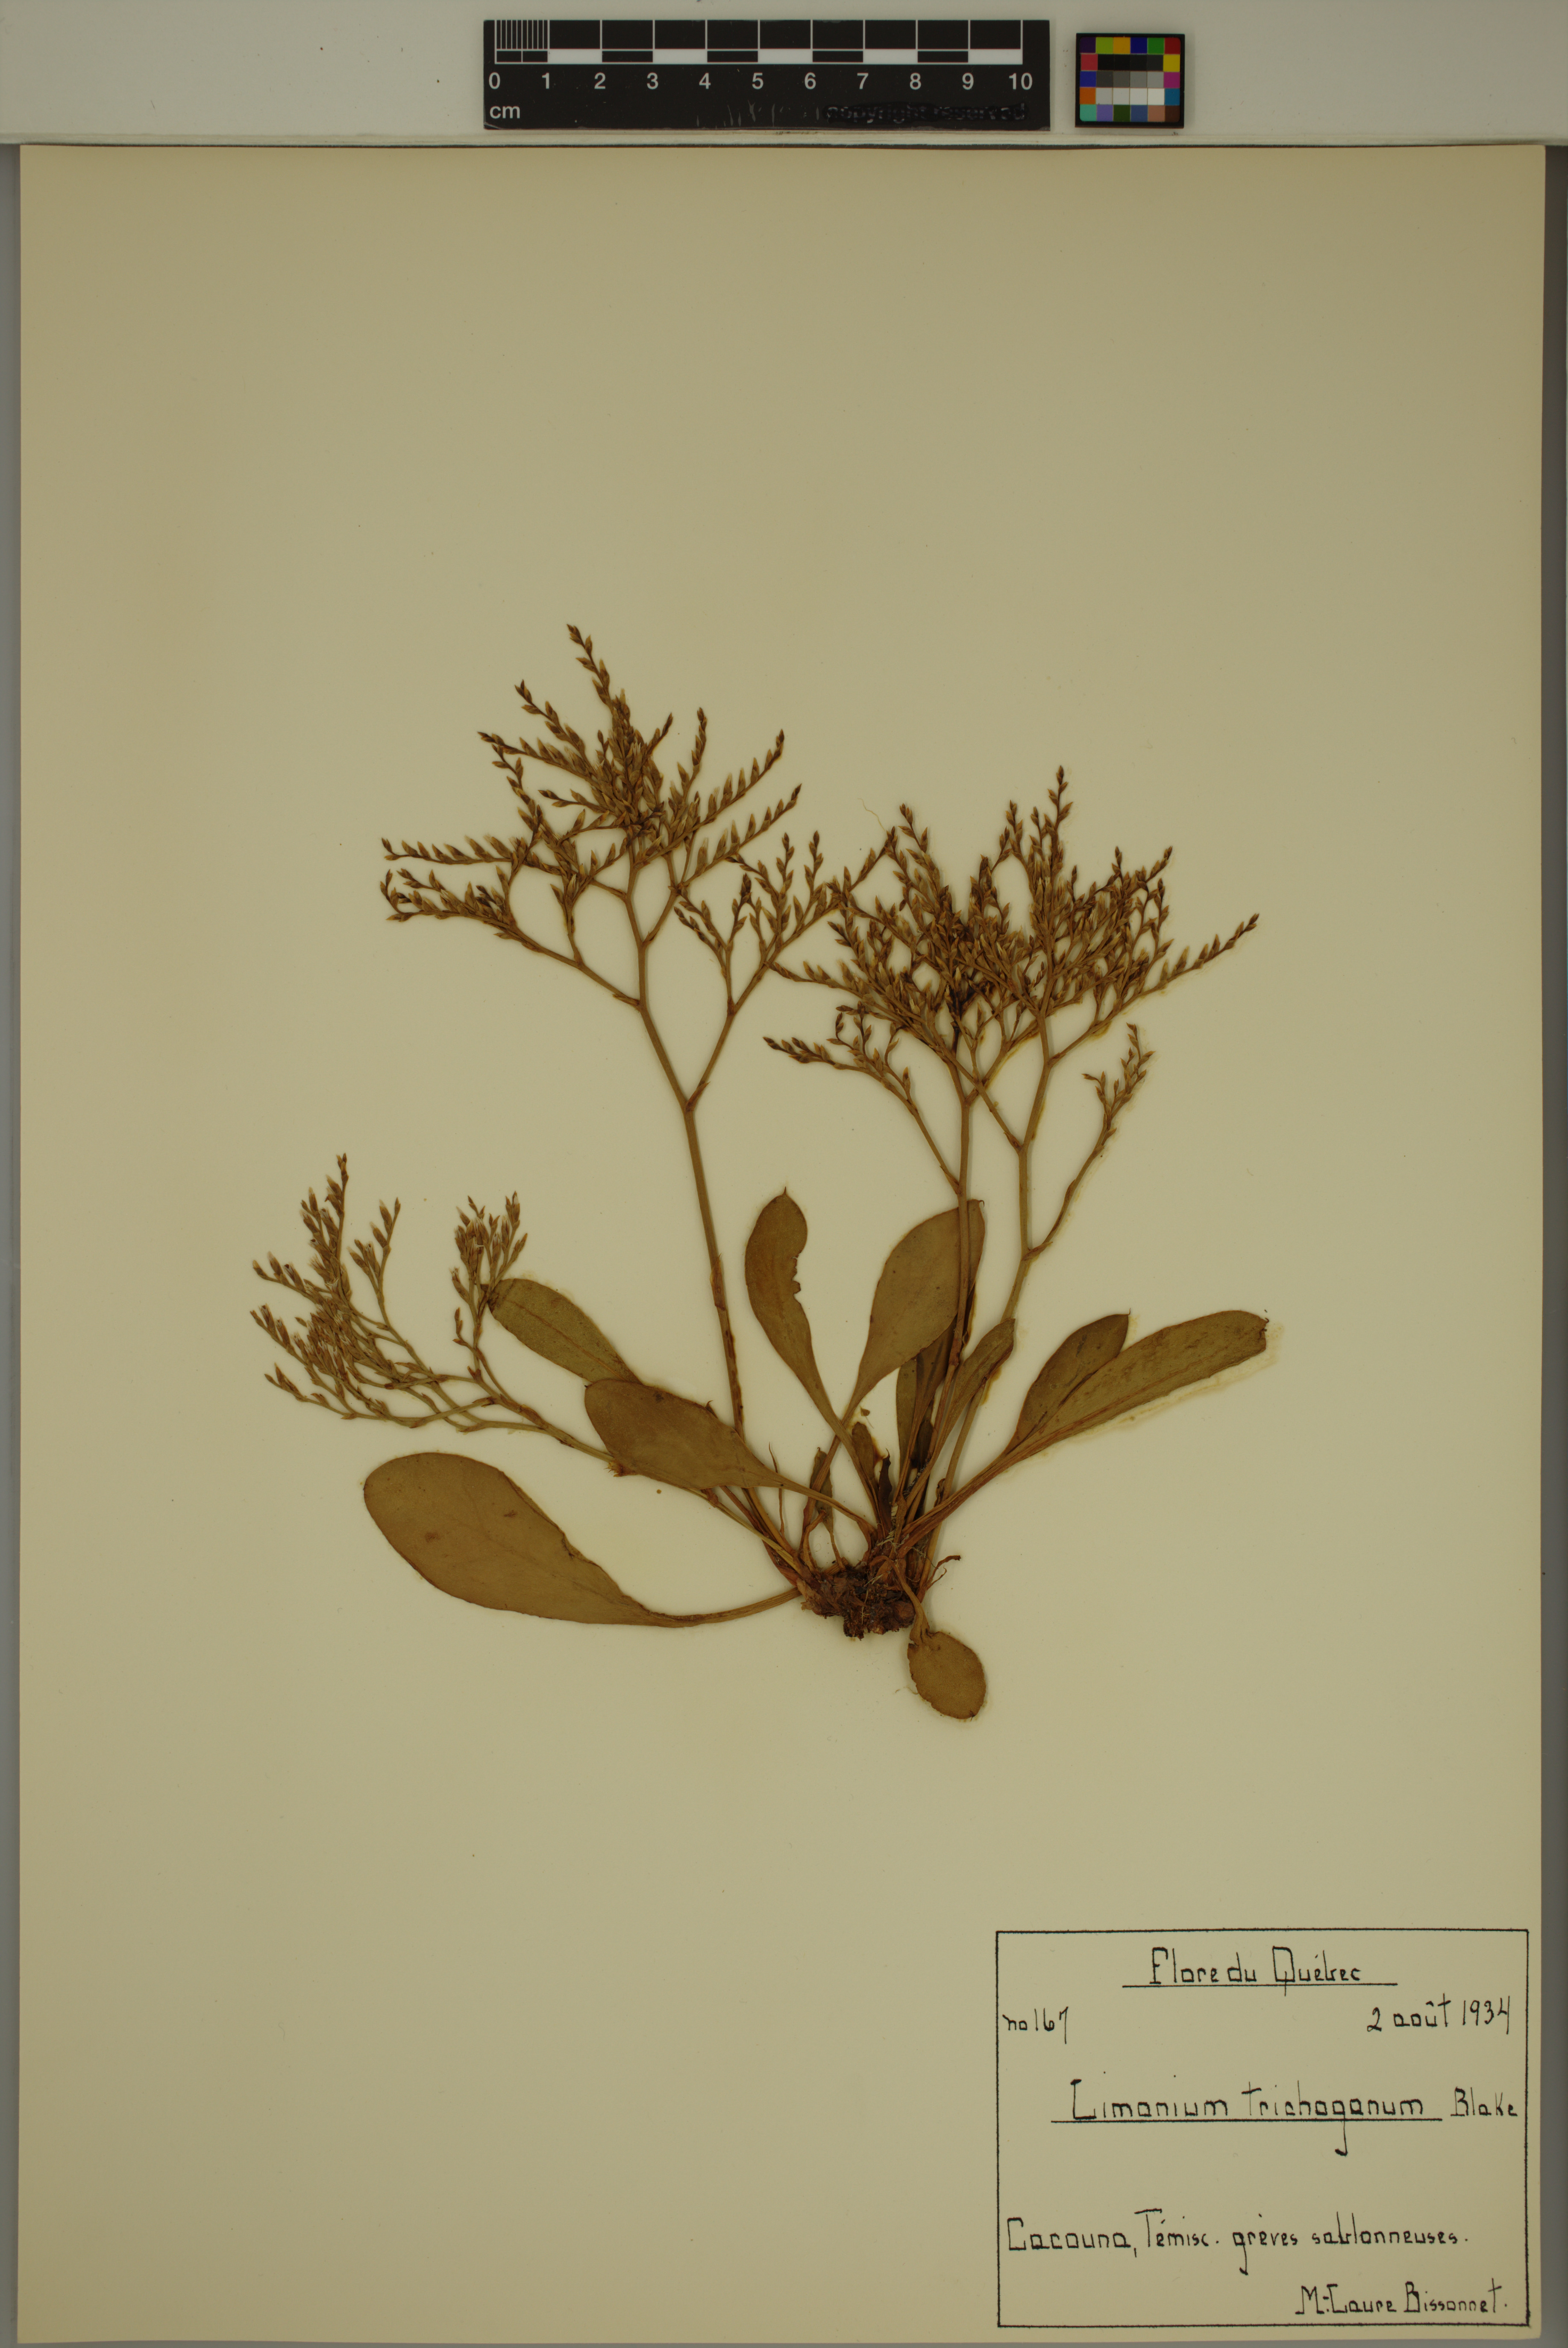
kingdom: Plantae
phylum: Tracheophyta
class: Magnoliopsida
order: Caryophyllales
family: Plumbaginaceae
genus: Limonium
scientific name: Limonium carolinianum
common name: Carolina sea lavender
